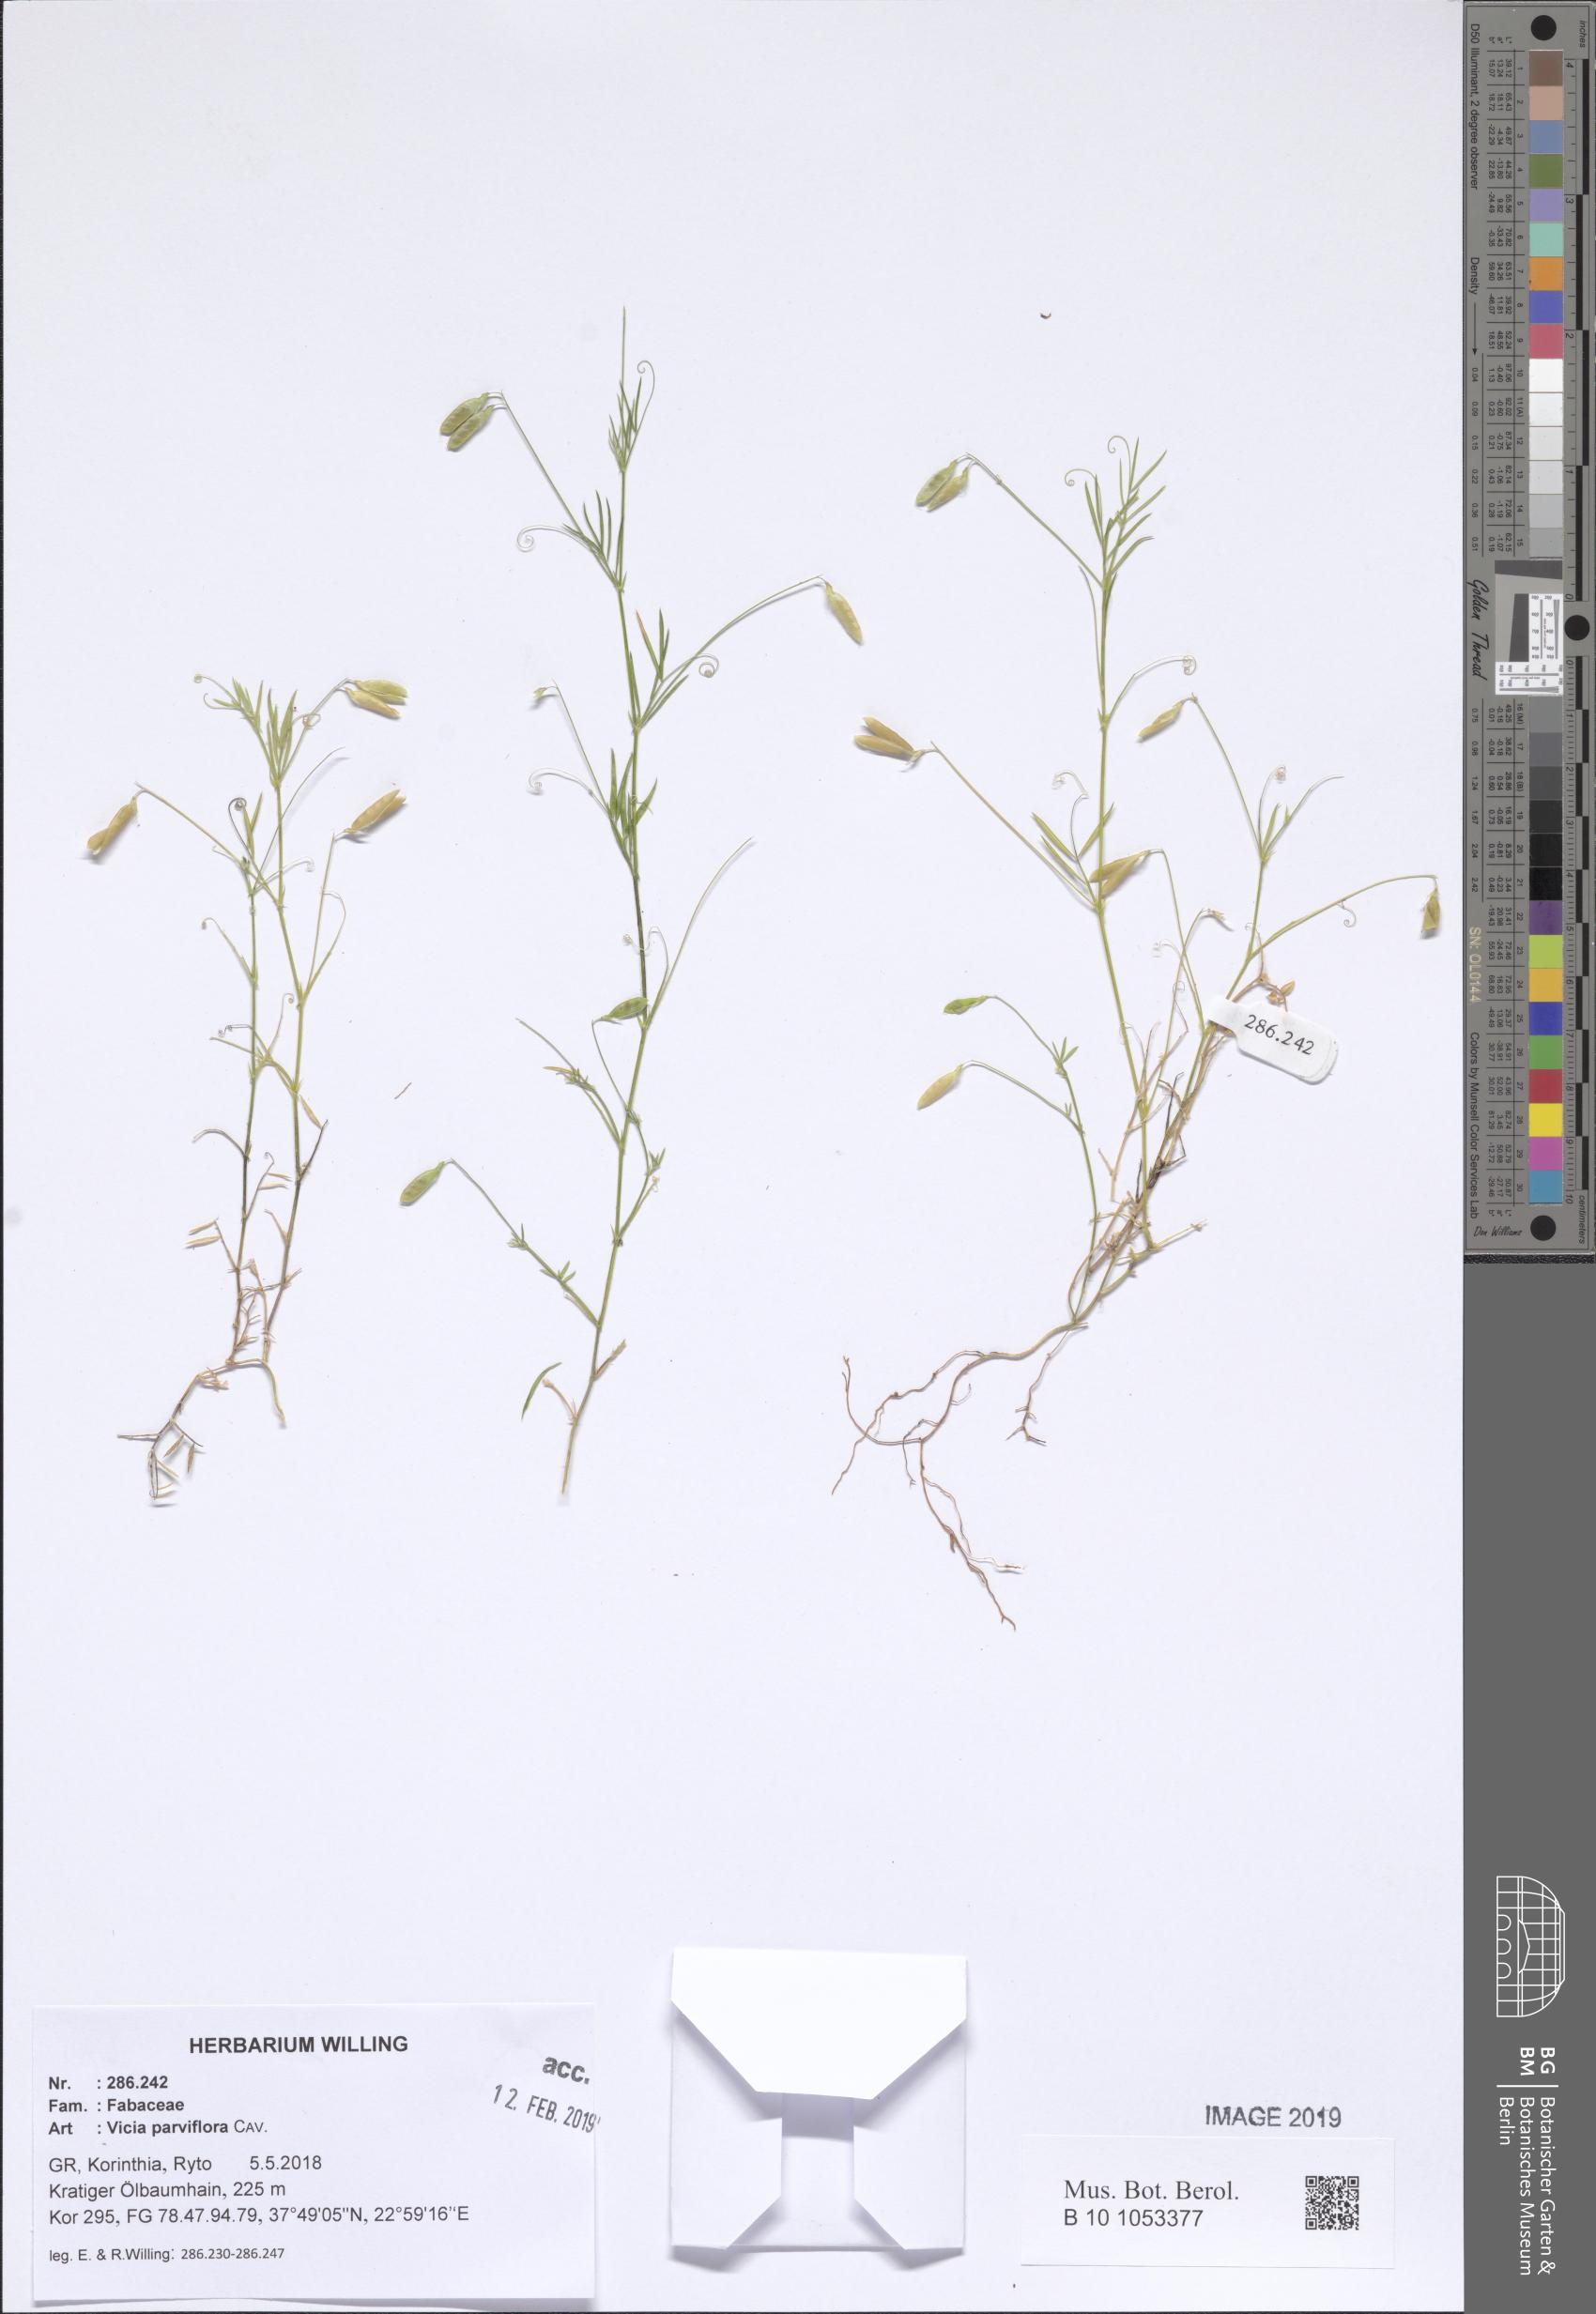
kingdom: Plantae
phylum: Tracheophyta
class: Magnoliopsida
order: Fabales
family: Fabaceae
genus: Vicia
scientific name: Vicia parviflora
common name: Slender tare
